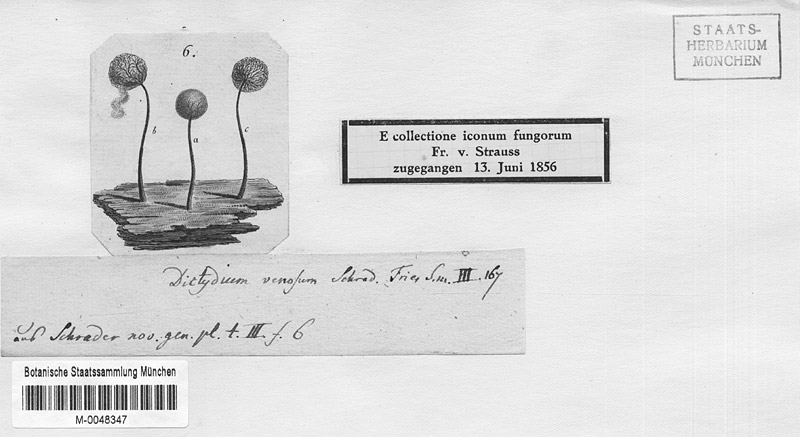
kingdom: Protozoa
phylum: Mycetozoa
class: Myxomycetes
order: Cribrariales
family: Cribrariaceae
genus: Cribraria
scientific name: Cribraria
